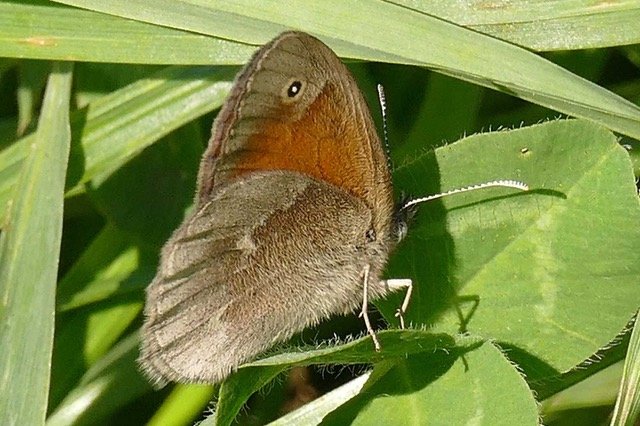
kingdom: Animalia
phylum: Arthropoda
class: Insecta
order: Lepidoptera
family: Nymphalidae
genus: Coenonympha
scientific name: Coenonympha tullia
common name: Large Heath
